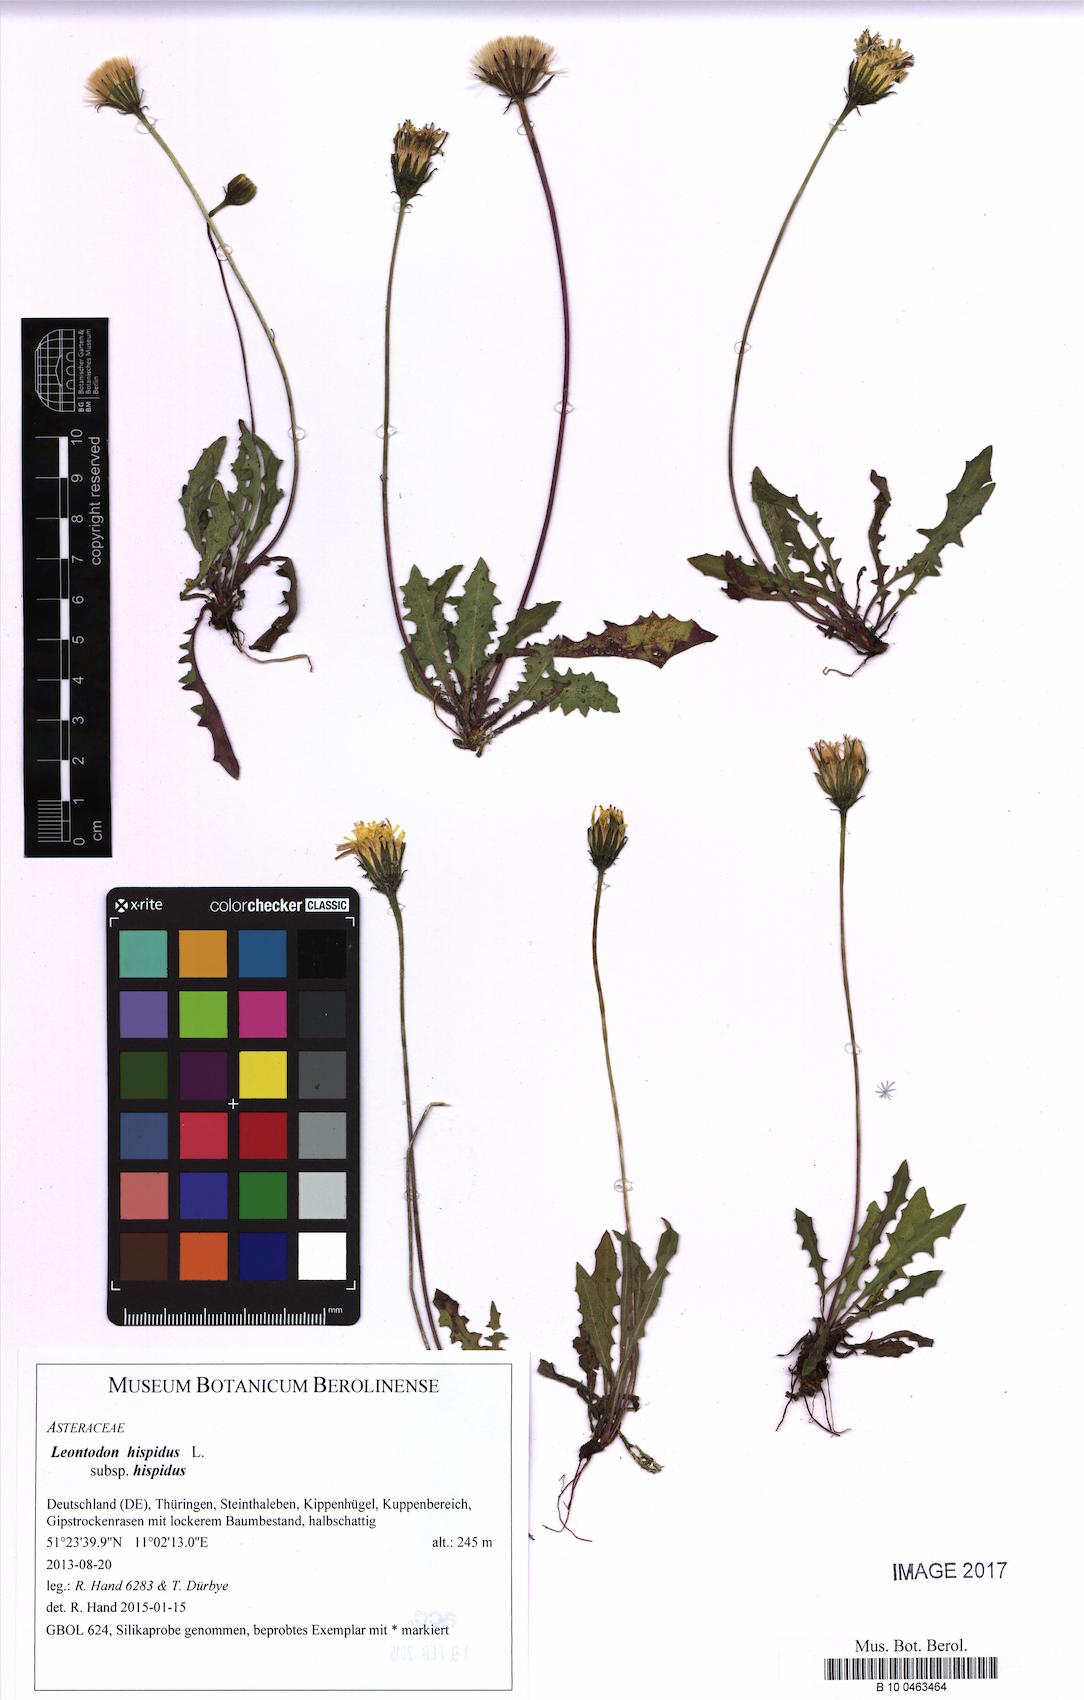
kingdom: Plantae
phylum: Tracheophyta
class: Magnoliopsida
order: Asterales
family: Asteraceae
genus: Leontodon
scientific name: Leontodon hispidus
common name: Rough hawkbit
